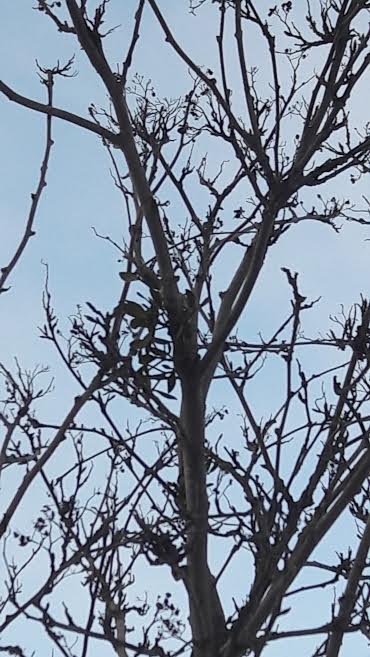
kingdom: Plantae
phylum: Tracheophyta
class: Magnoliopsida
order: Santalales
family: Viscaceae
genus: Viscum
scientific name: Viscum album
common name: Mistletoe
